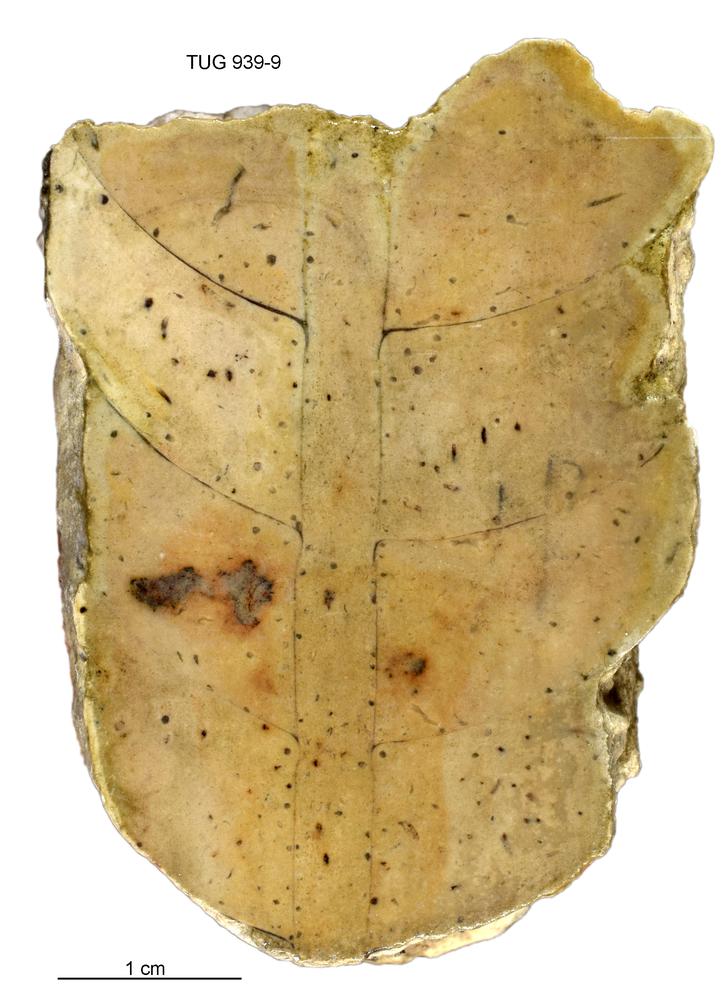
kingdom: Animalia
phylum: Mollusca
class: Cephalopoda
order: Orthocerida
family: Orthoceratidae
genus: Orthoceras
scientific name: Orthoceras
